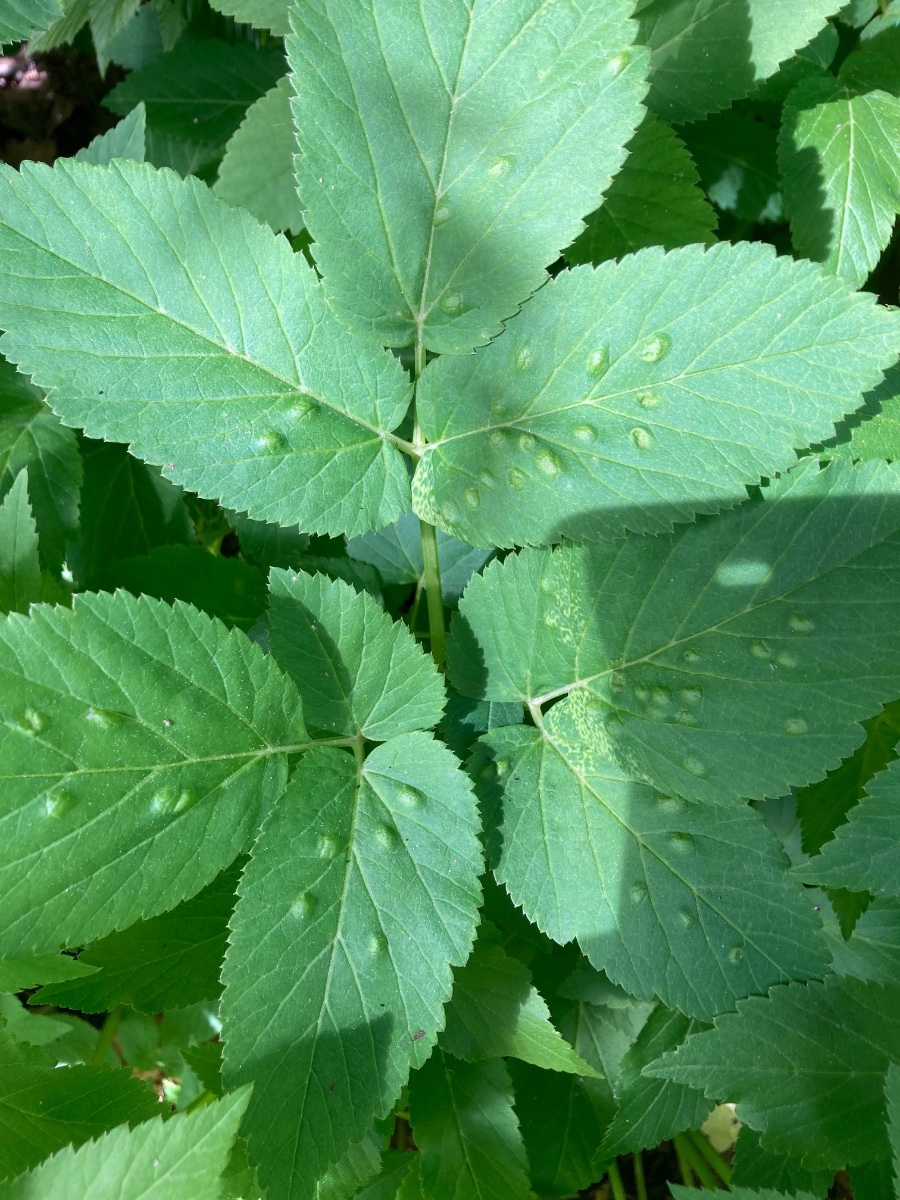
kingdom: Fungi
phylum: Ascomycota
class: Taphrinomycetes
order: Taphrinales
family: Taphrinaceae
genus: Protomyces
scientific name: Protomyces macrosporus
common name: skvalderkål-vablesæk
